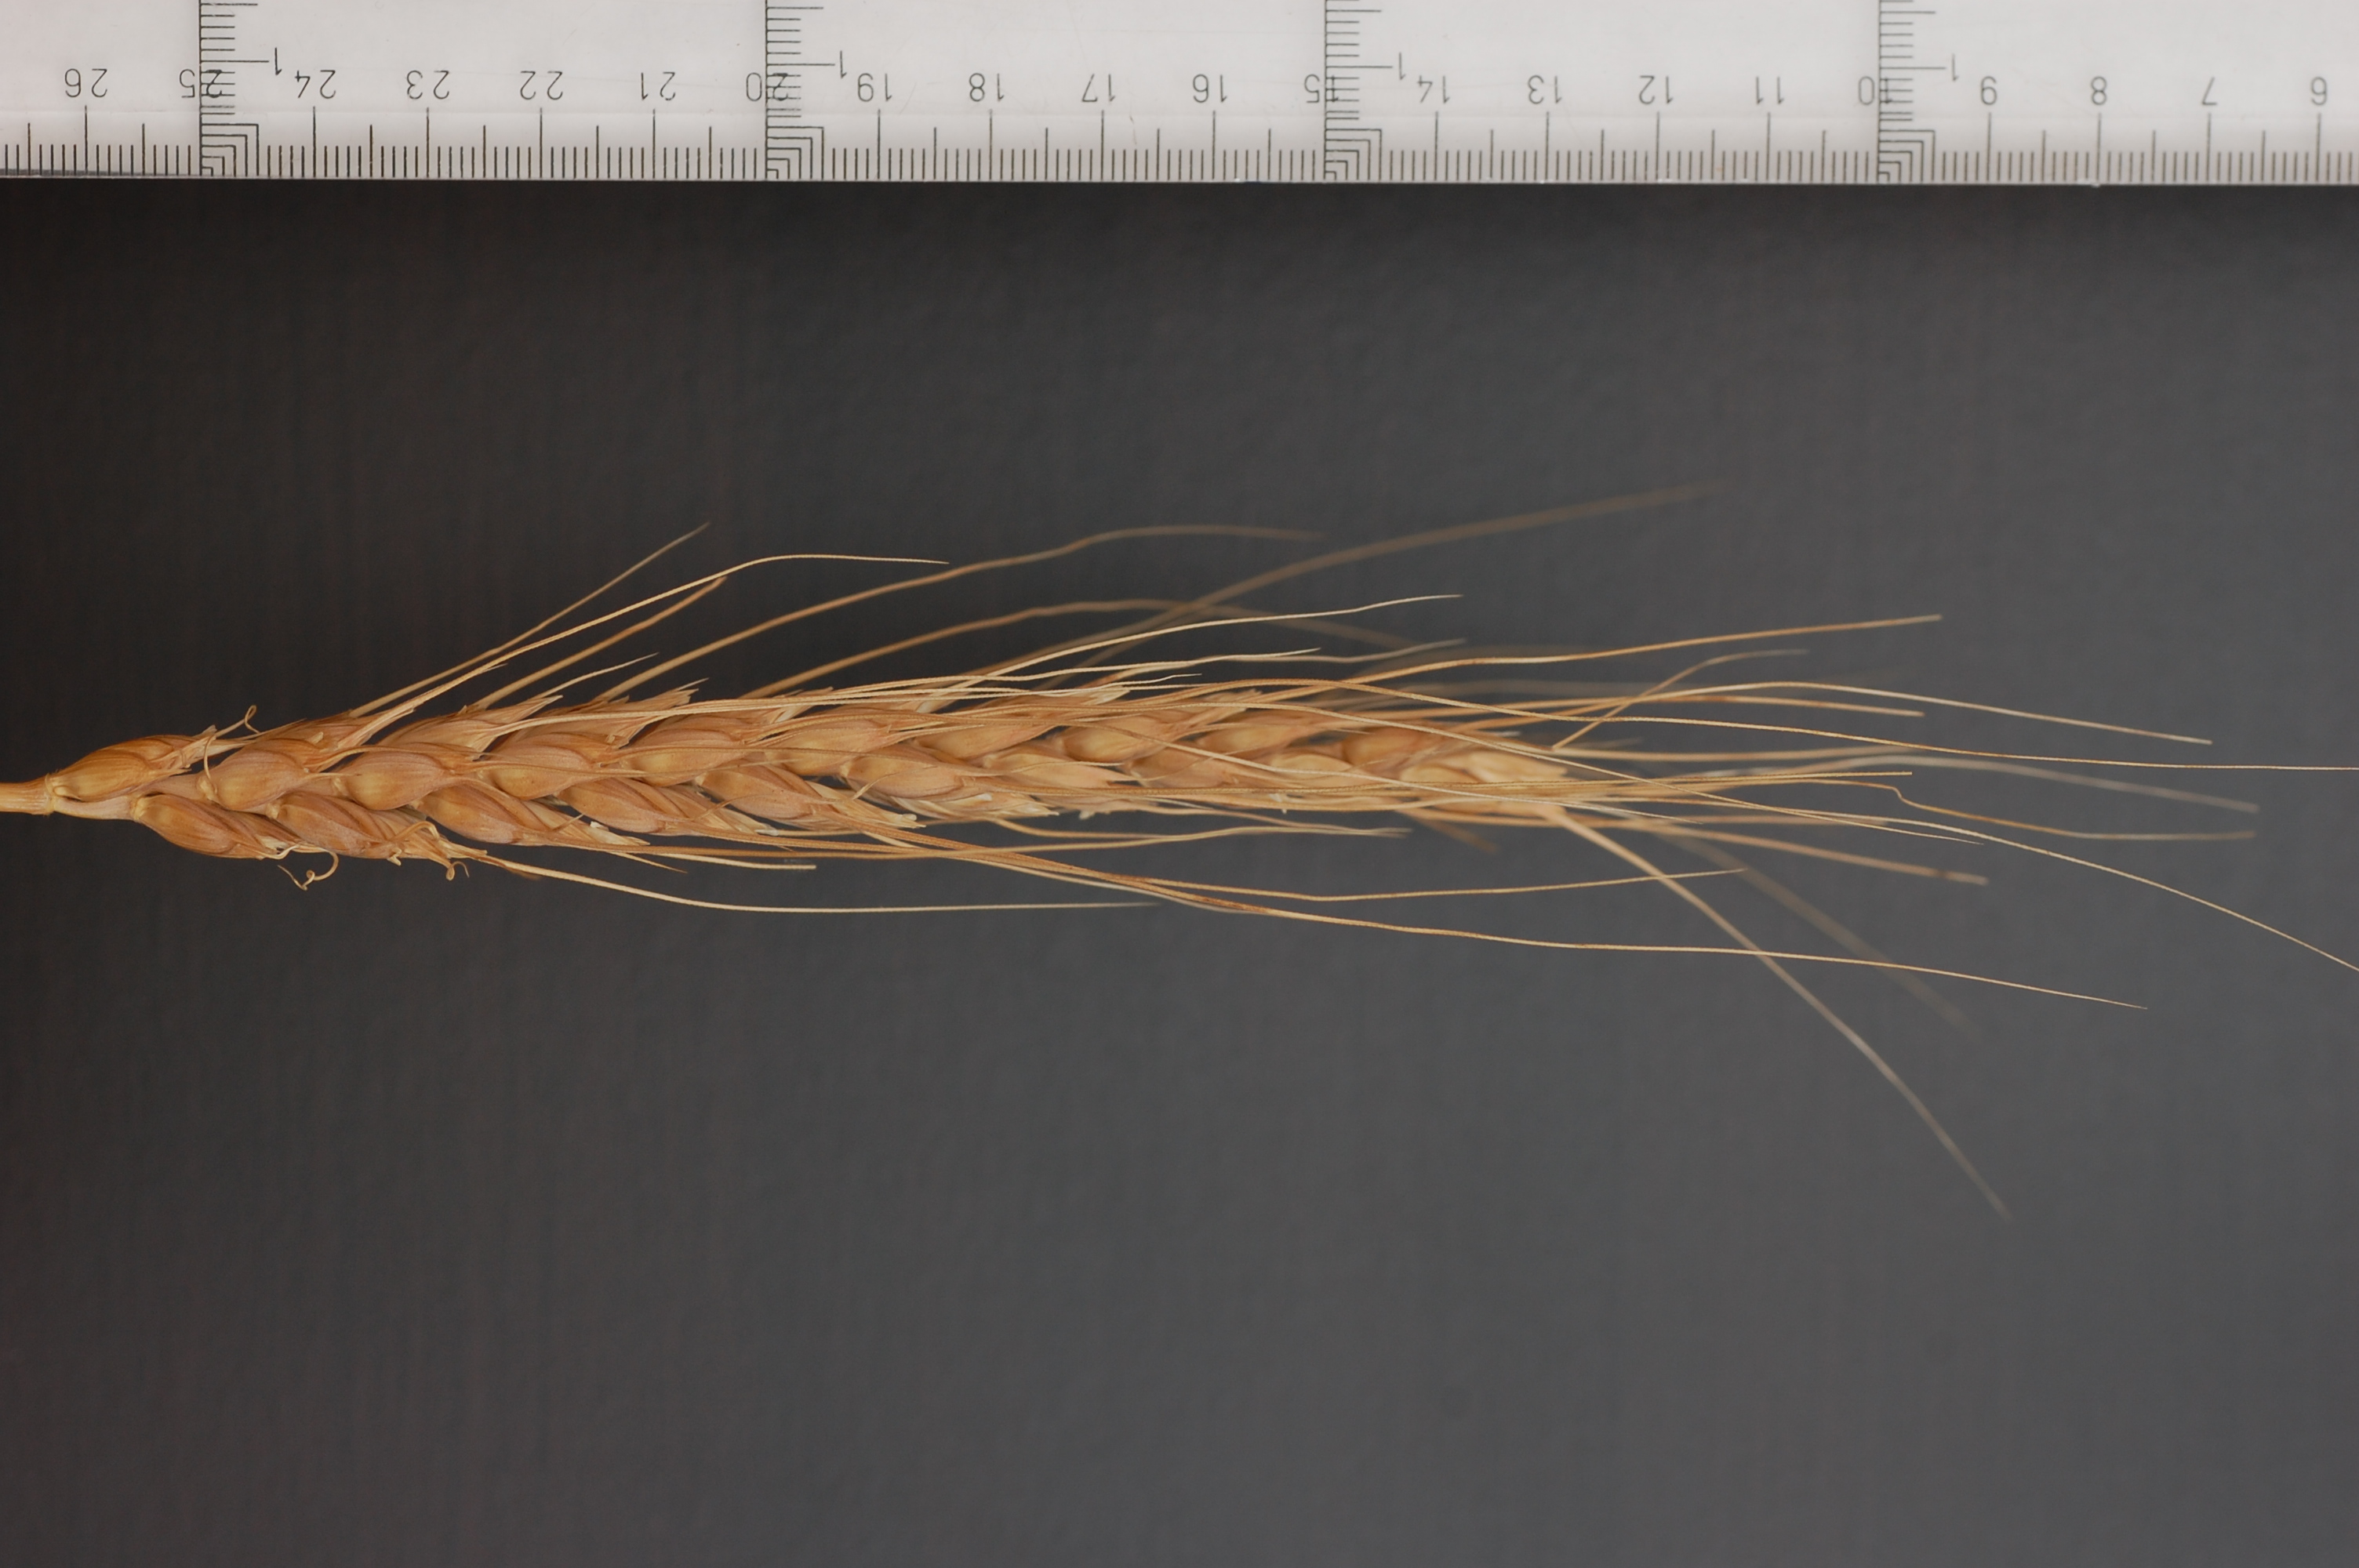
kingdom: Plantae
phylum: Tracheophyta
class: Liliopsida
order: Poales
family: Poaceae
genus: Triticum
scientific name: Triticum aestivum
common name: Common wheat
